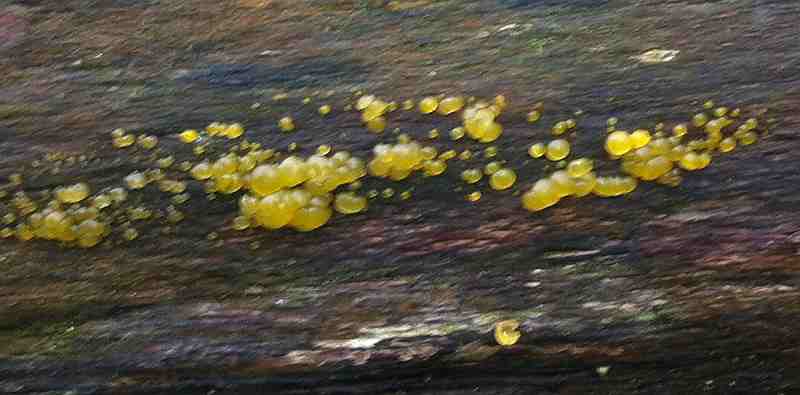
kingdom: Fungi
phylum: Basidiomycota
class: Dacrymycetes
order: Dacrymycetales
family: Dacrymycetaceae
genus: Dacrymyces
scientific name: Dacrymyces lacrymalis
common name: rynket tåresvamp
